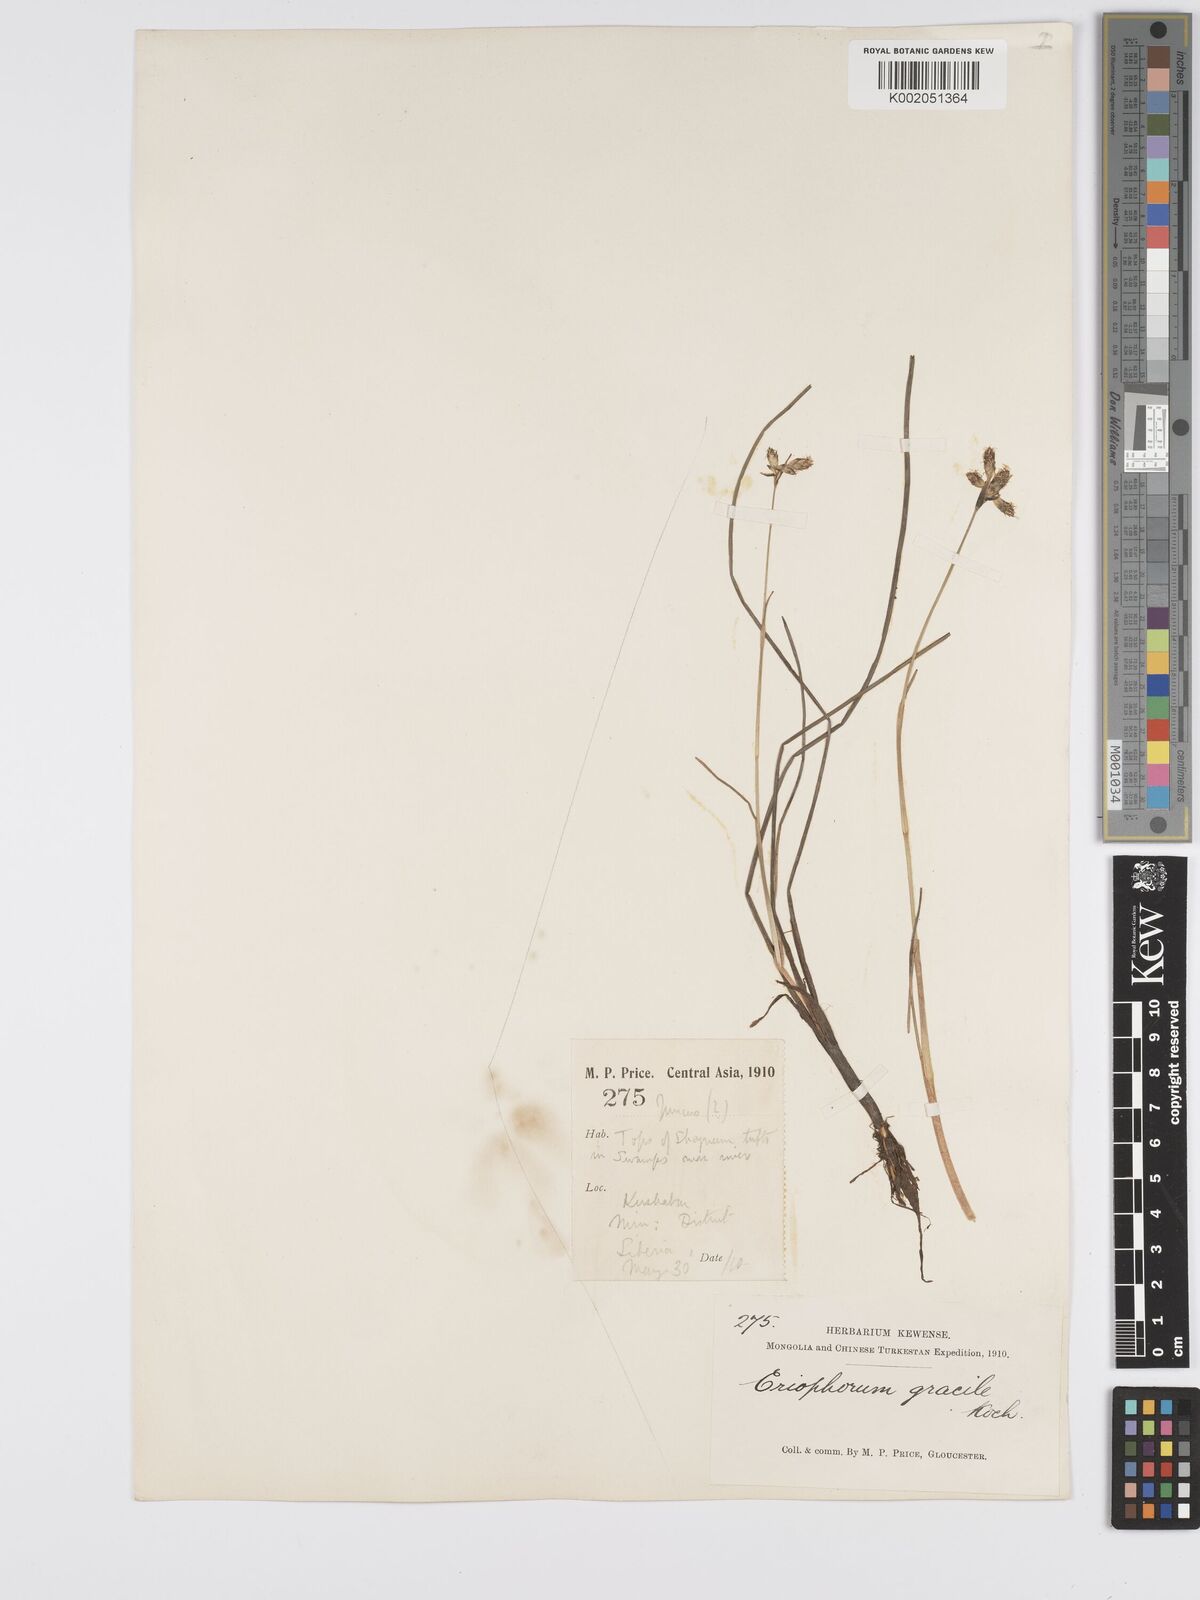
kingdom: Plantae
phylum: Tracheophyta
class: Liliopsida
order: Poales
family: Cyperaceae
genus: Eriophorum
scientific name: Eriophorum gracile
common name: Slender cottongrass
